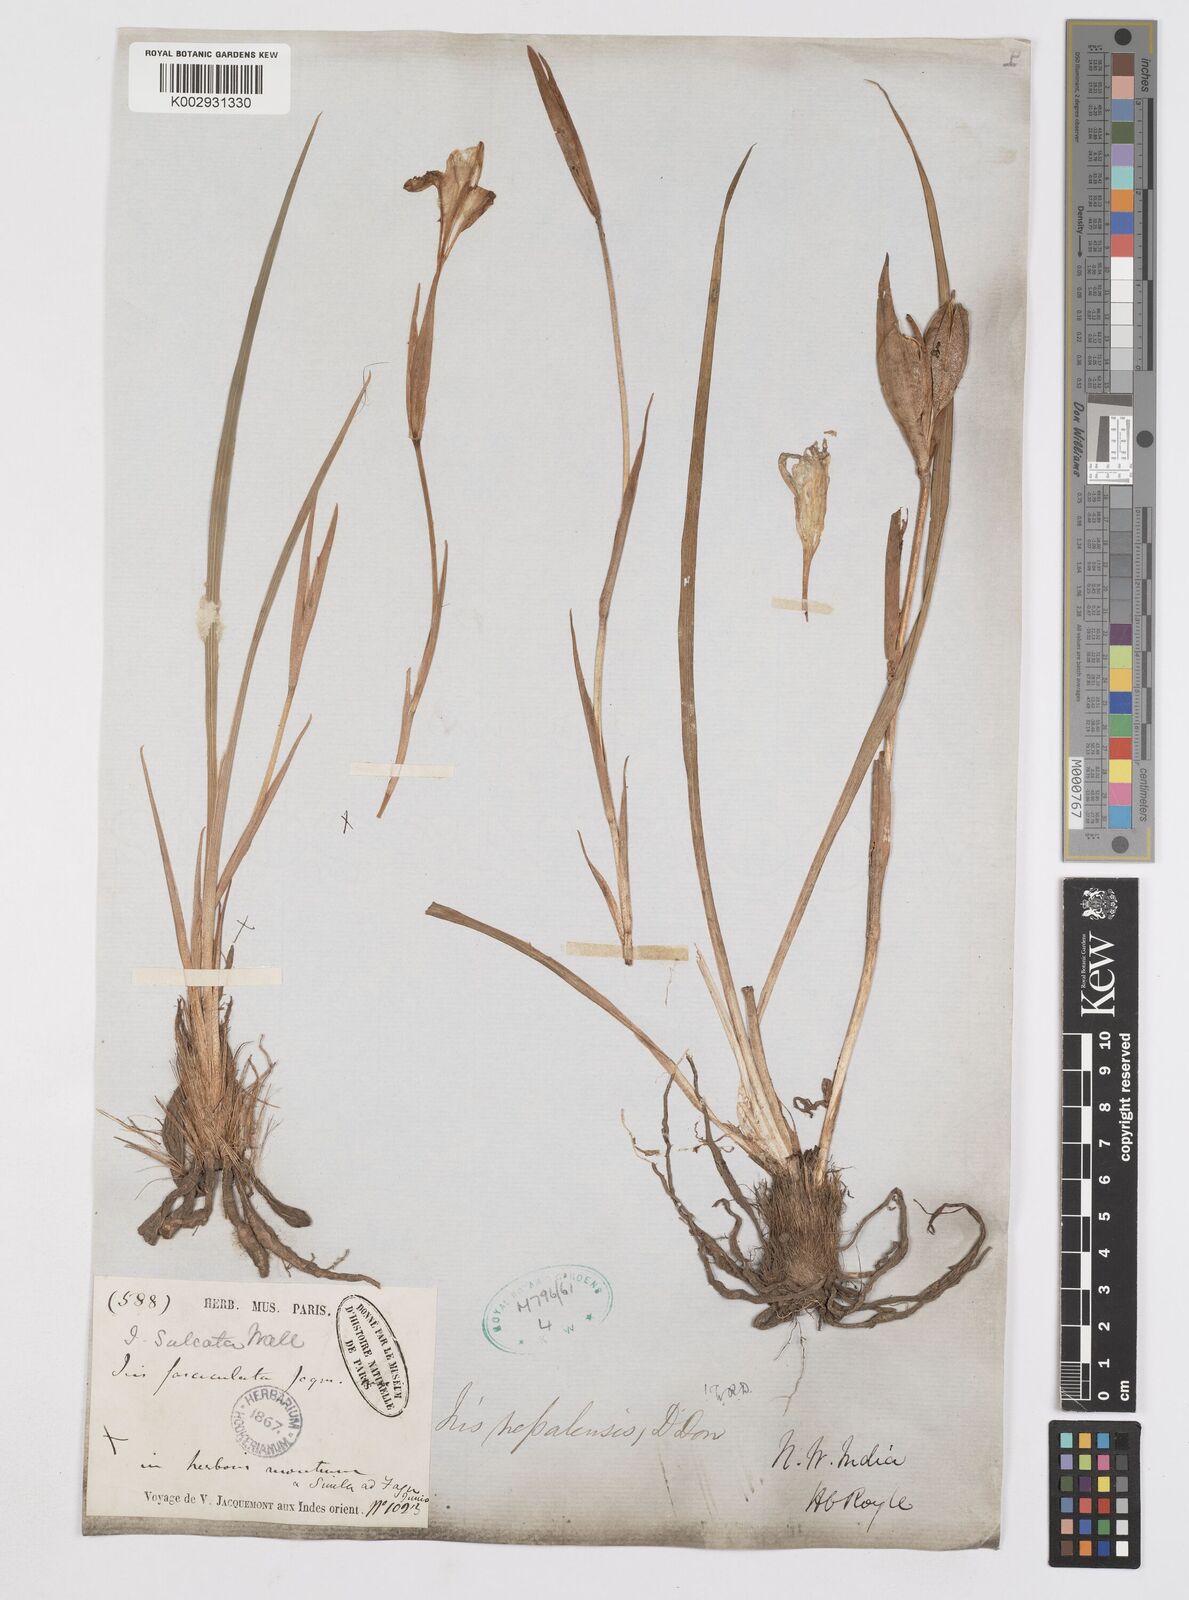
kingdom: Plantae
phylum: Tracheophyta
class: Liliopsida
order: Asparagales
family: Iridaceae
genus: Iris
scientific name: Iris decora
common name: Nepal iris
